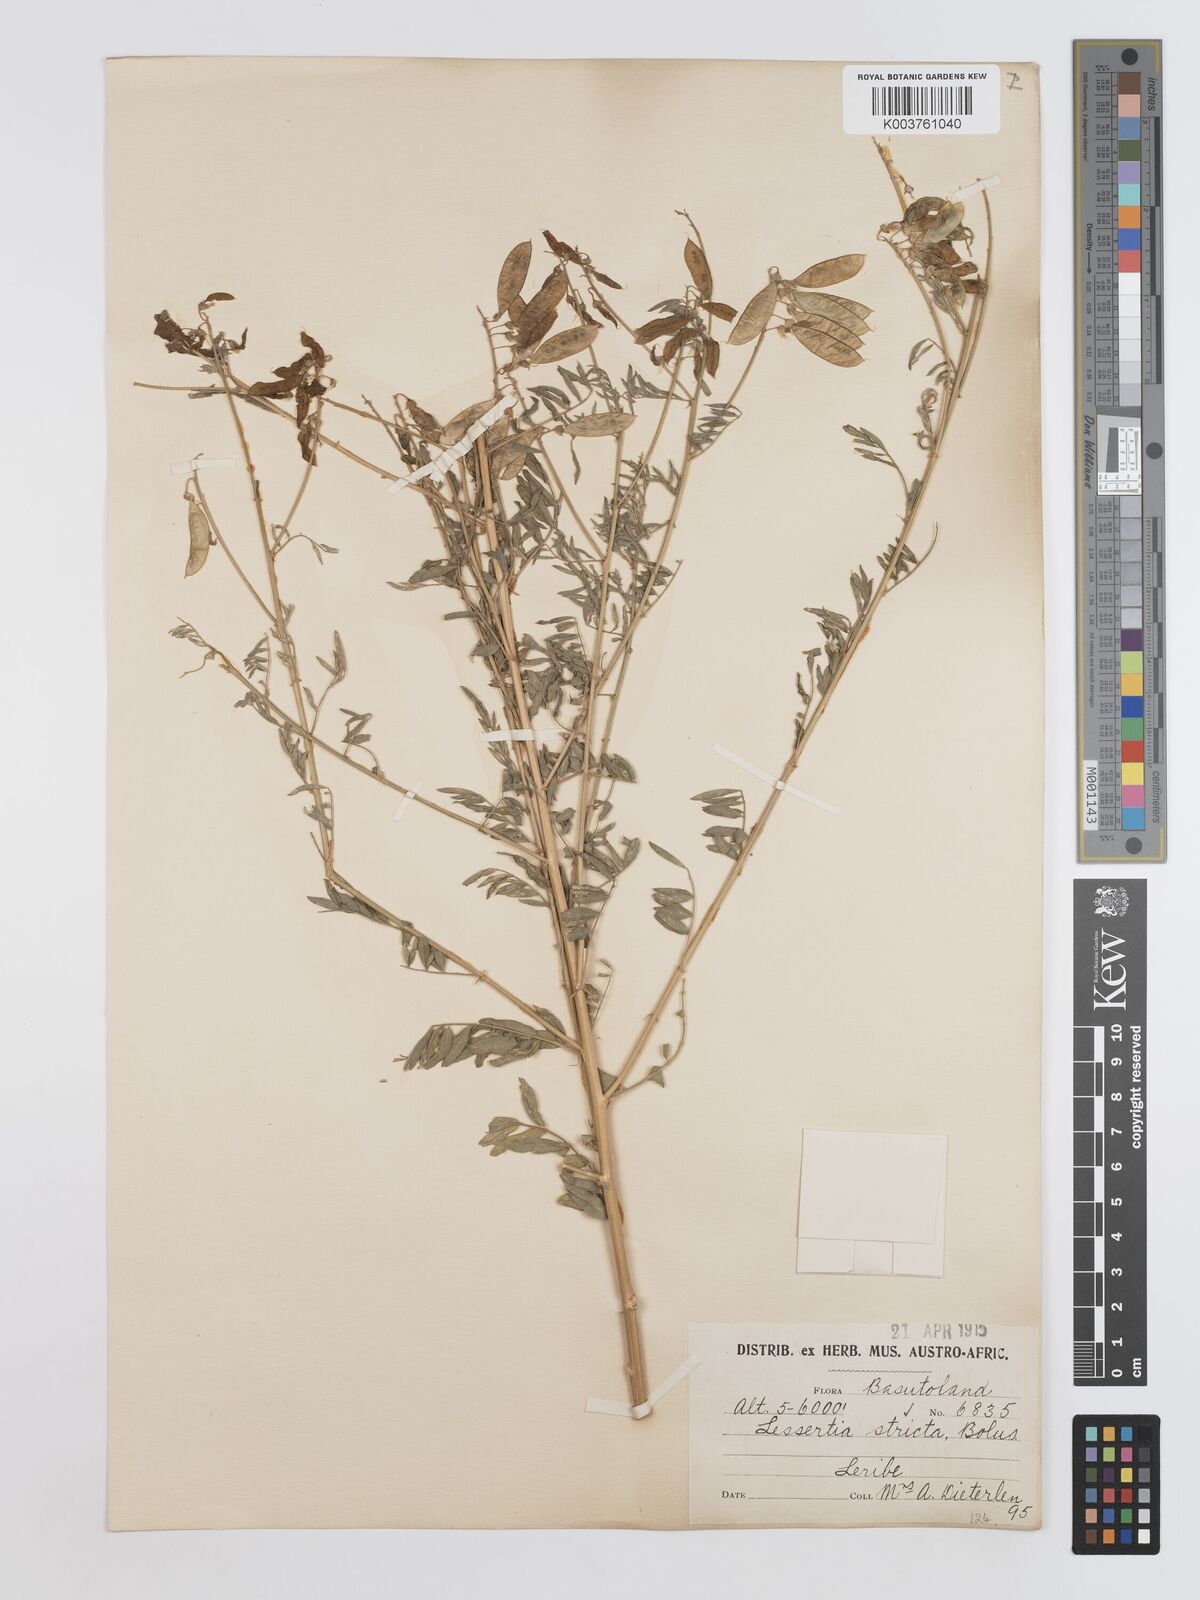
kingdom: Plantae
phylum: Tracheophyta
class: Magnoliopsida
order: Fabales
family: Fabaceae
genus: Lessertia
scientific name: Lessertia stricta
